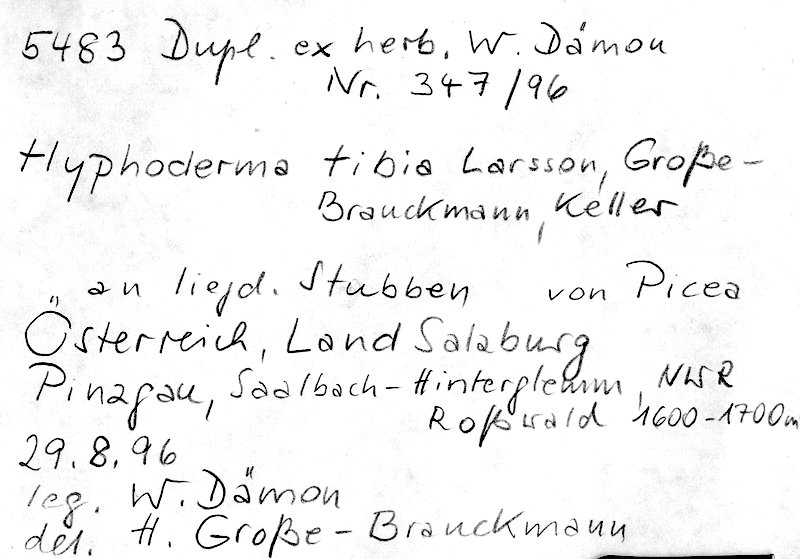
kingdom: Fungi
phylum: Basidiomycota
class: Agaricomycetes
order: Polyporales
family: Hyphodermataceae
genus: Hyphoderma
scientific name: Hyphoderma tibia
